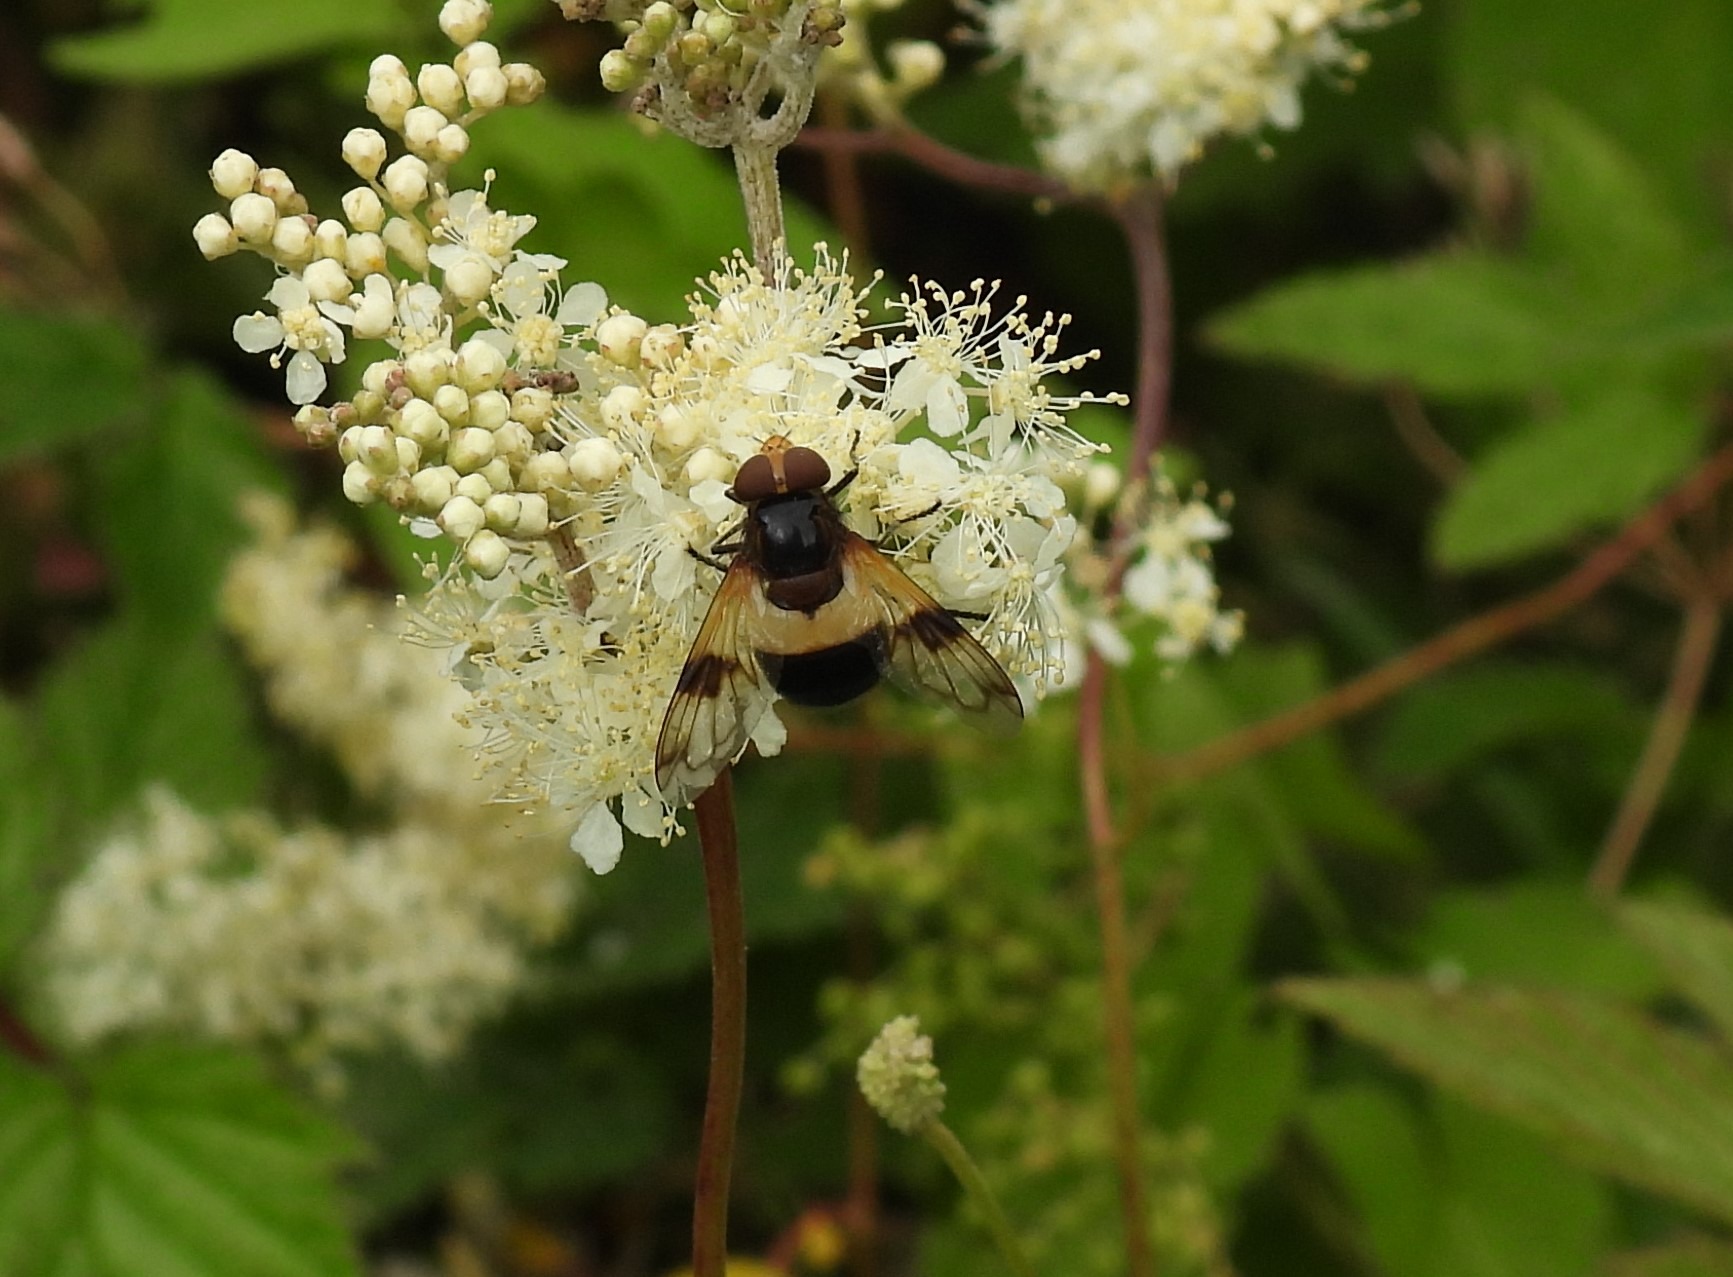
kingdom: Animalia
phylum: Arthropoda
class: Insecta
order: Diptera
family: Syrphidae
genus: Volucella
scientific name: Volucella pellucens
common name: Hvidbåndet humlesvirreflue
